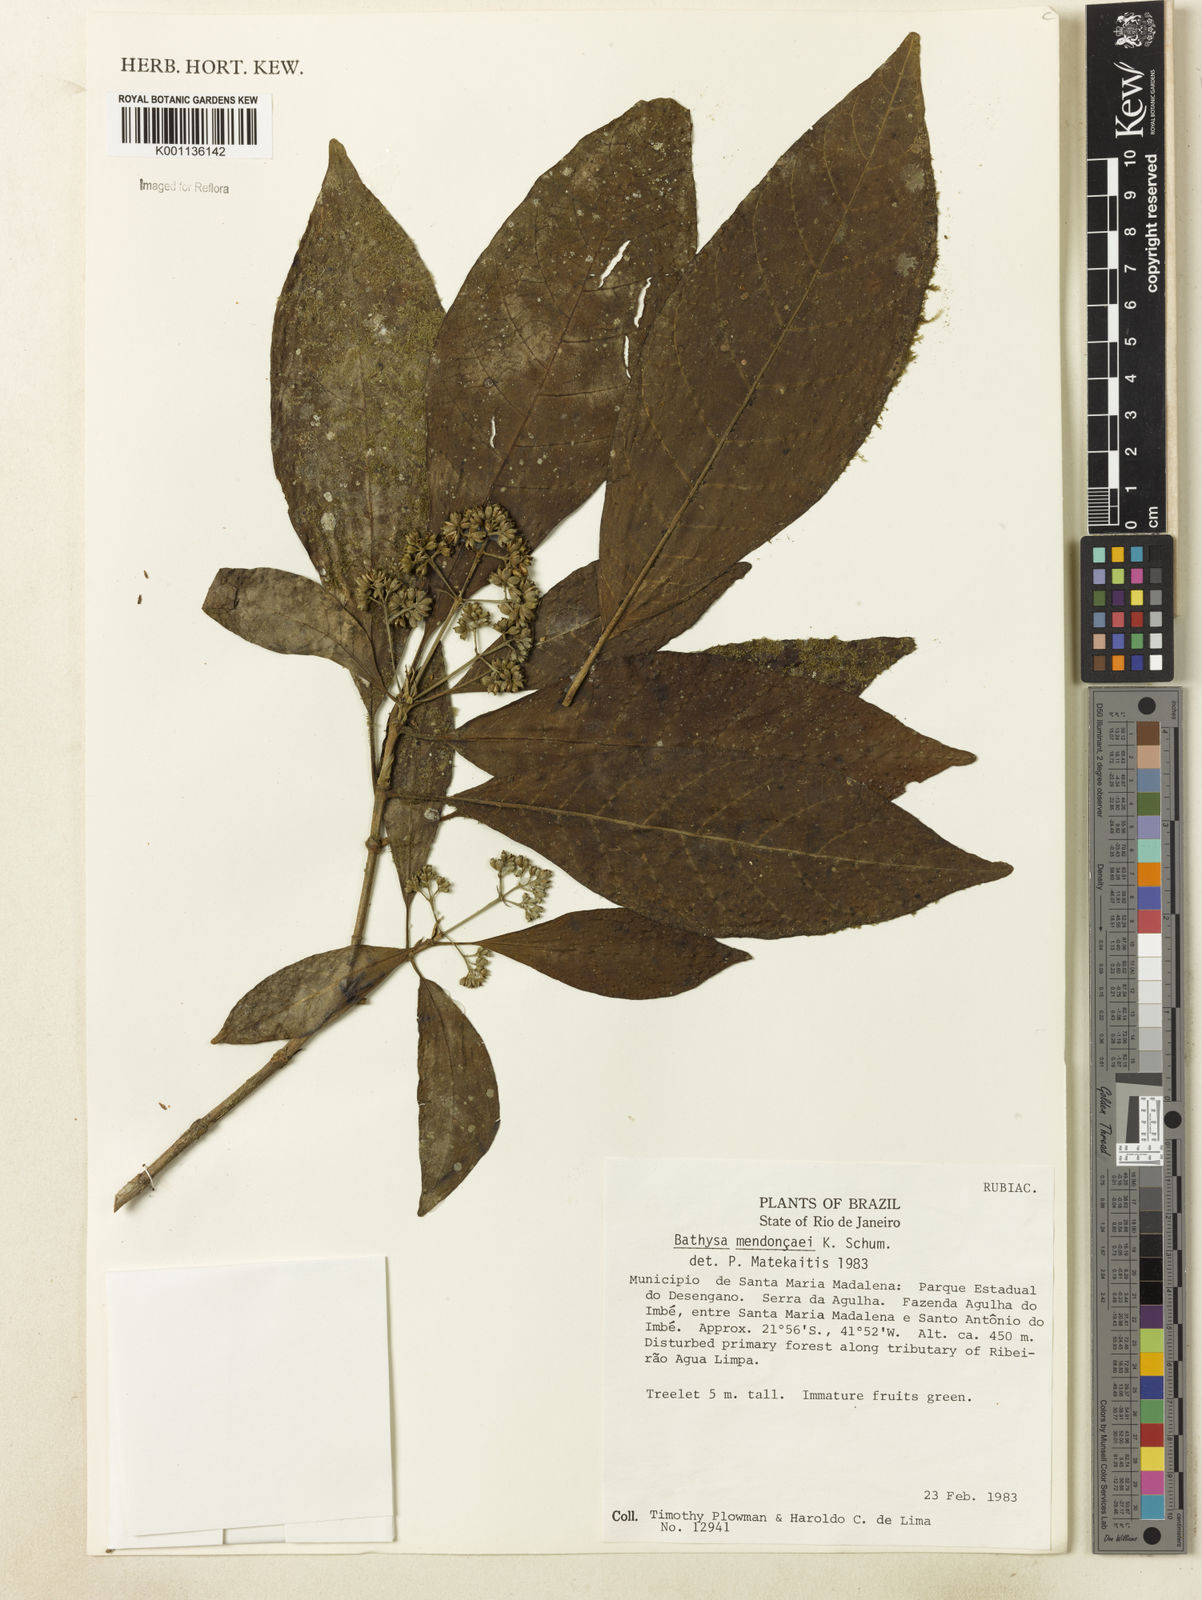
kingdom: Plantae
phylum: Tracheophyta
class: Magnoliopsida
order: Gentianales
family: Rubiaceae
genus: Bathysa
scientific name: Bathysa
